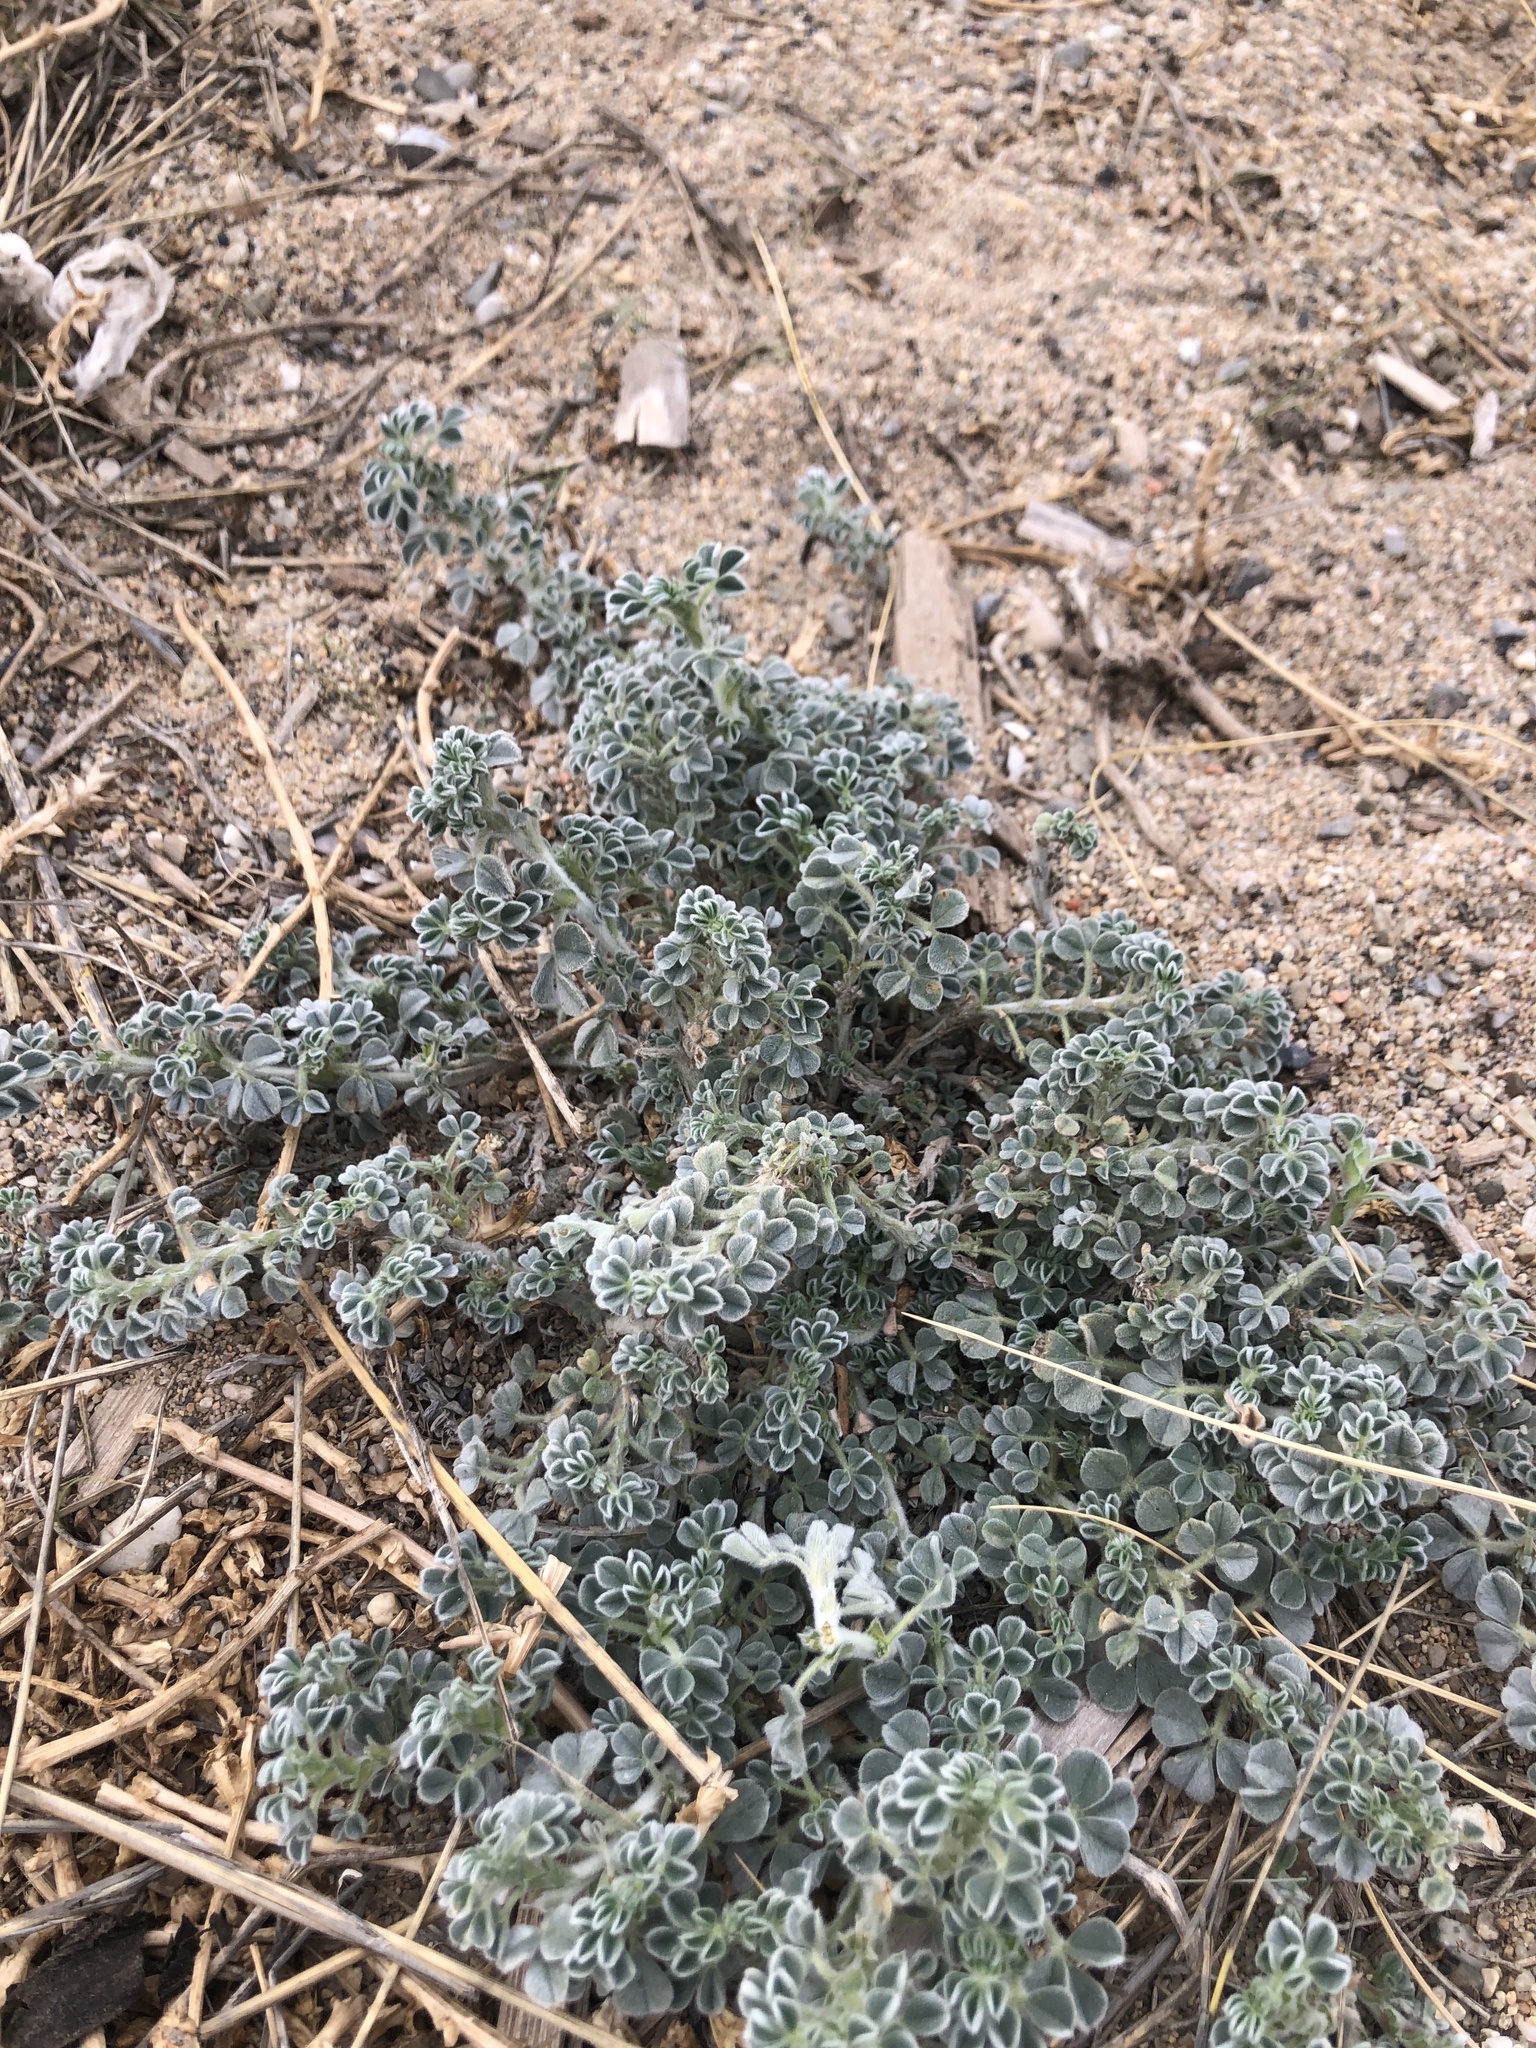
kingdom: Plantae
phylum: Tracheophyta
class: Magnoliopsida
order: Fabales
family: Fabaceae
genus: Medicago
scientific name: Medicago marina
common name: Sea medick
